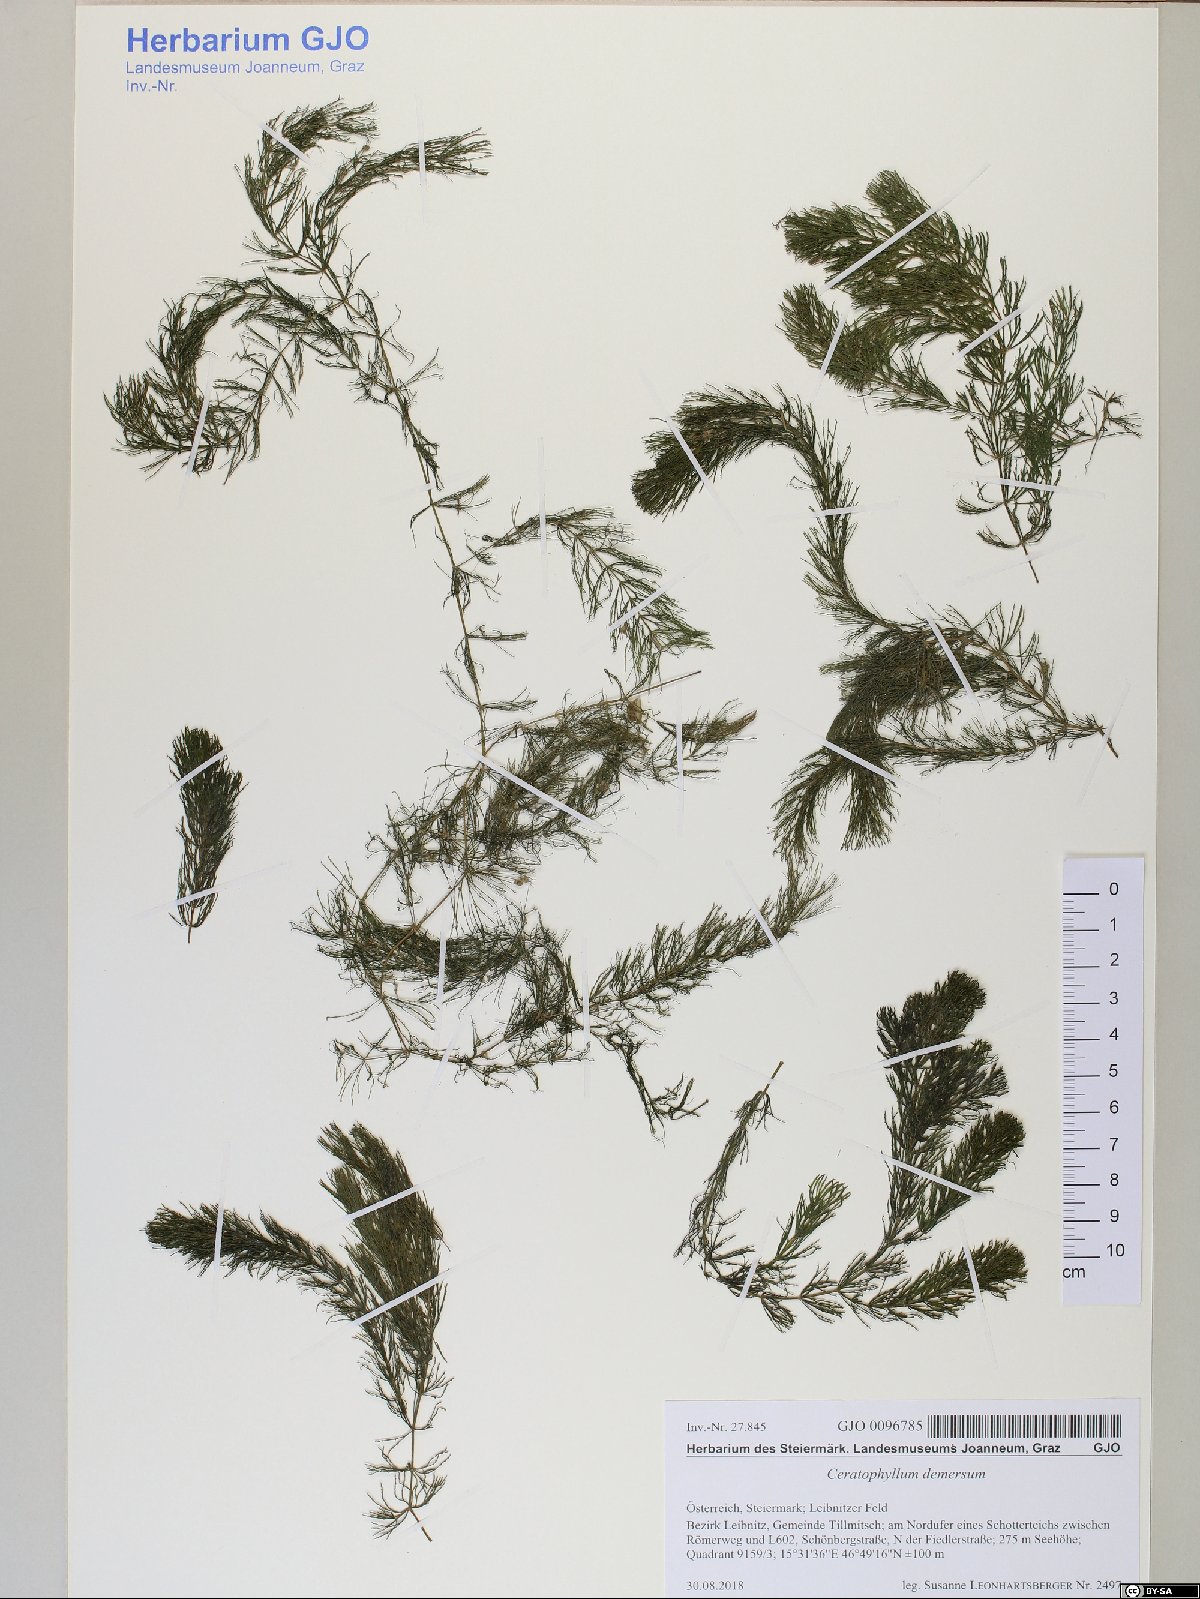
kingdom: Plantae
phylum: Tracheophyta
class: Magnoliopsida
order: Ceratophyllales
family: Ceratophyllaceae
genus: Ceratophyllum
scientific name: Ceratophyllum demersum
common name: Rigid hornwort
